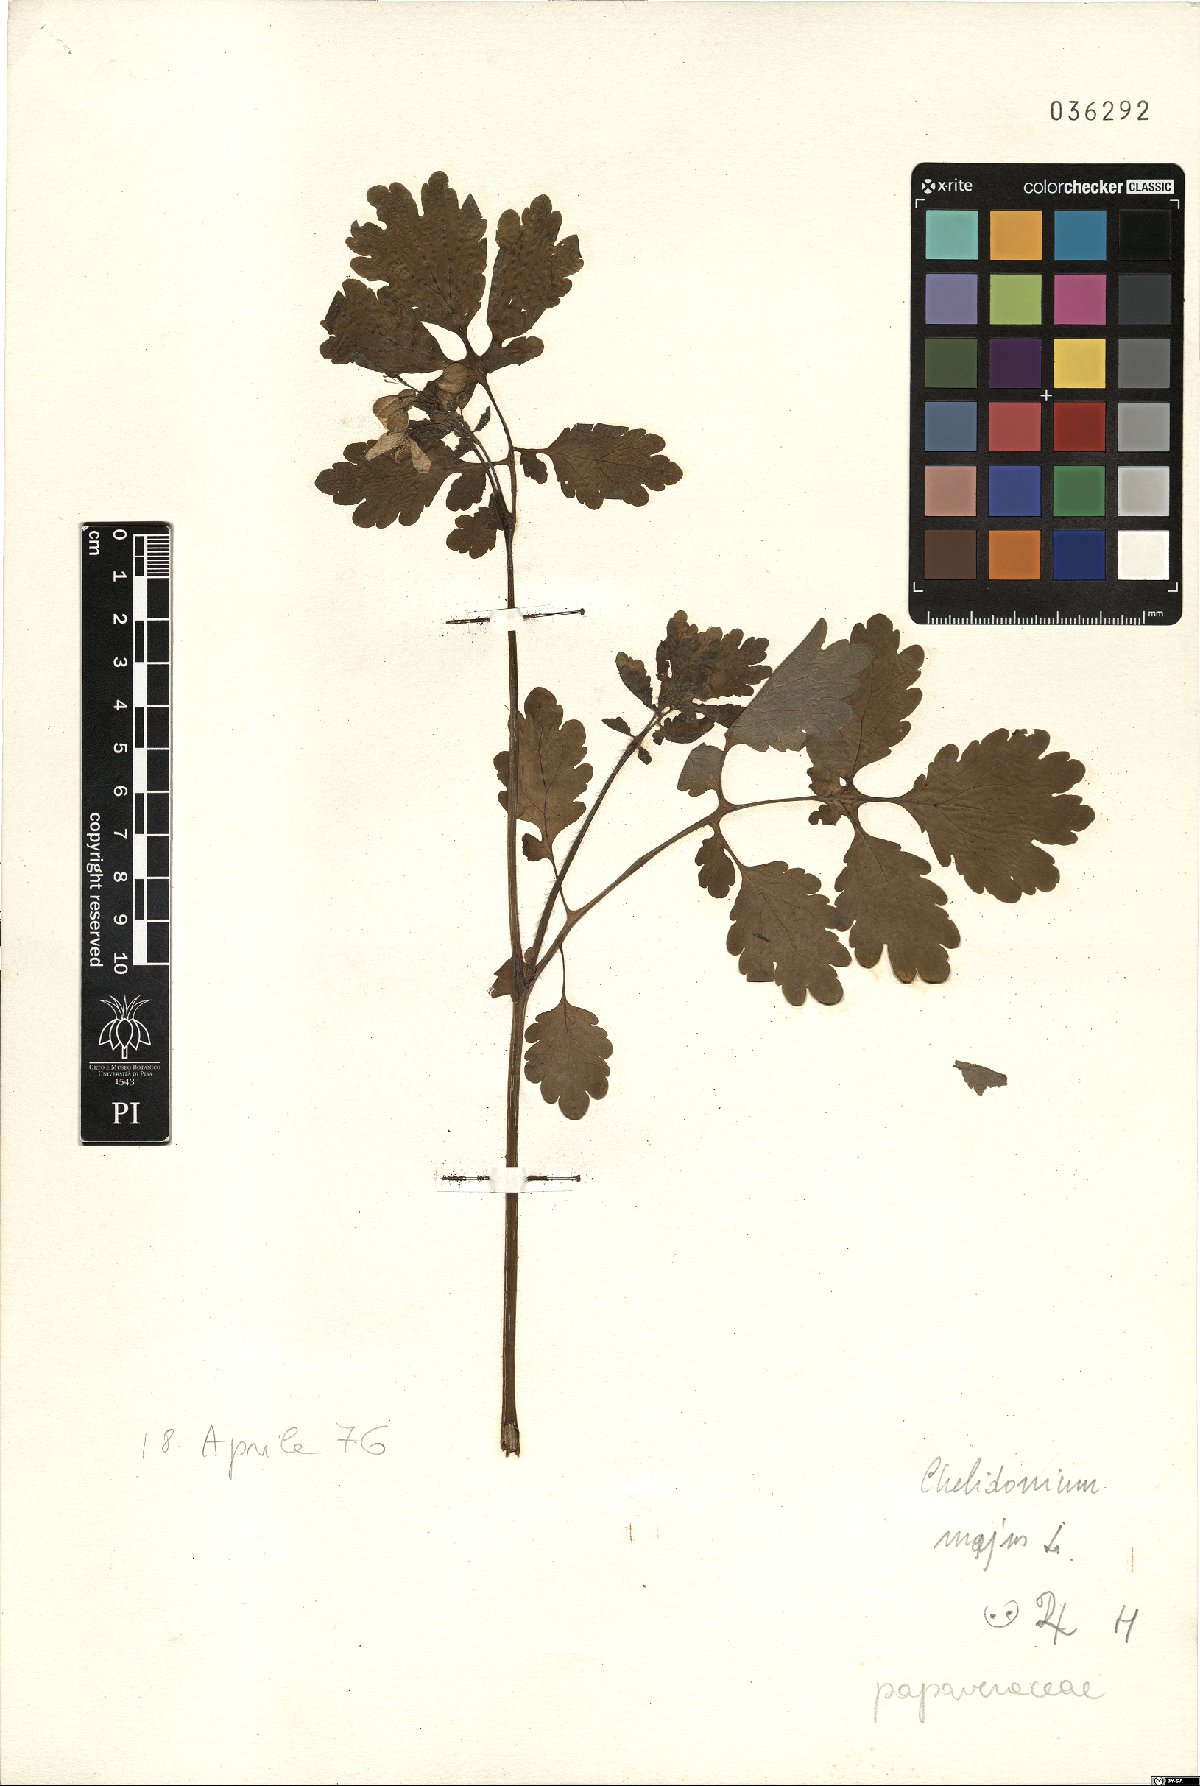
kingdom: Plantae
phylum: Tracheophyta
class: Magnoliopsida
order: Ranunculales
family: Papaveraceae
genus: Chelidonium
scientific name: Chelidonium majus
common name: Greater celandine
